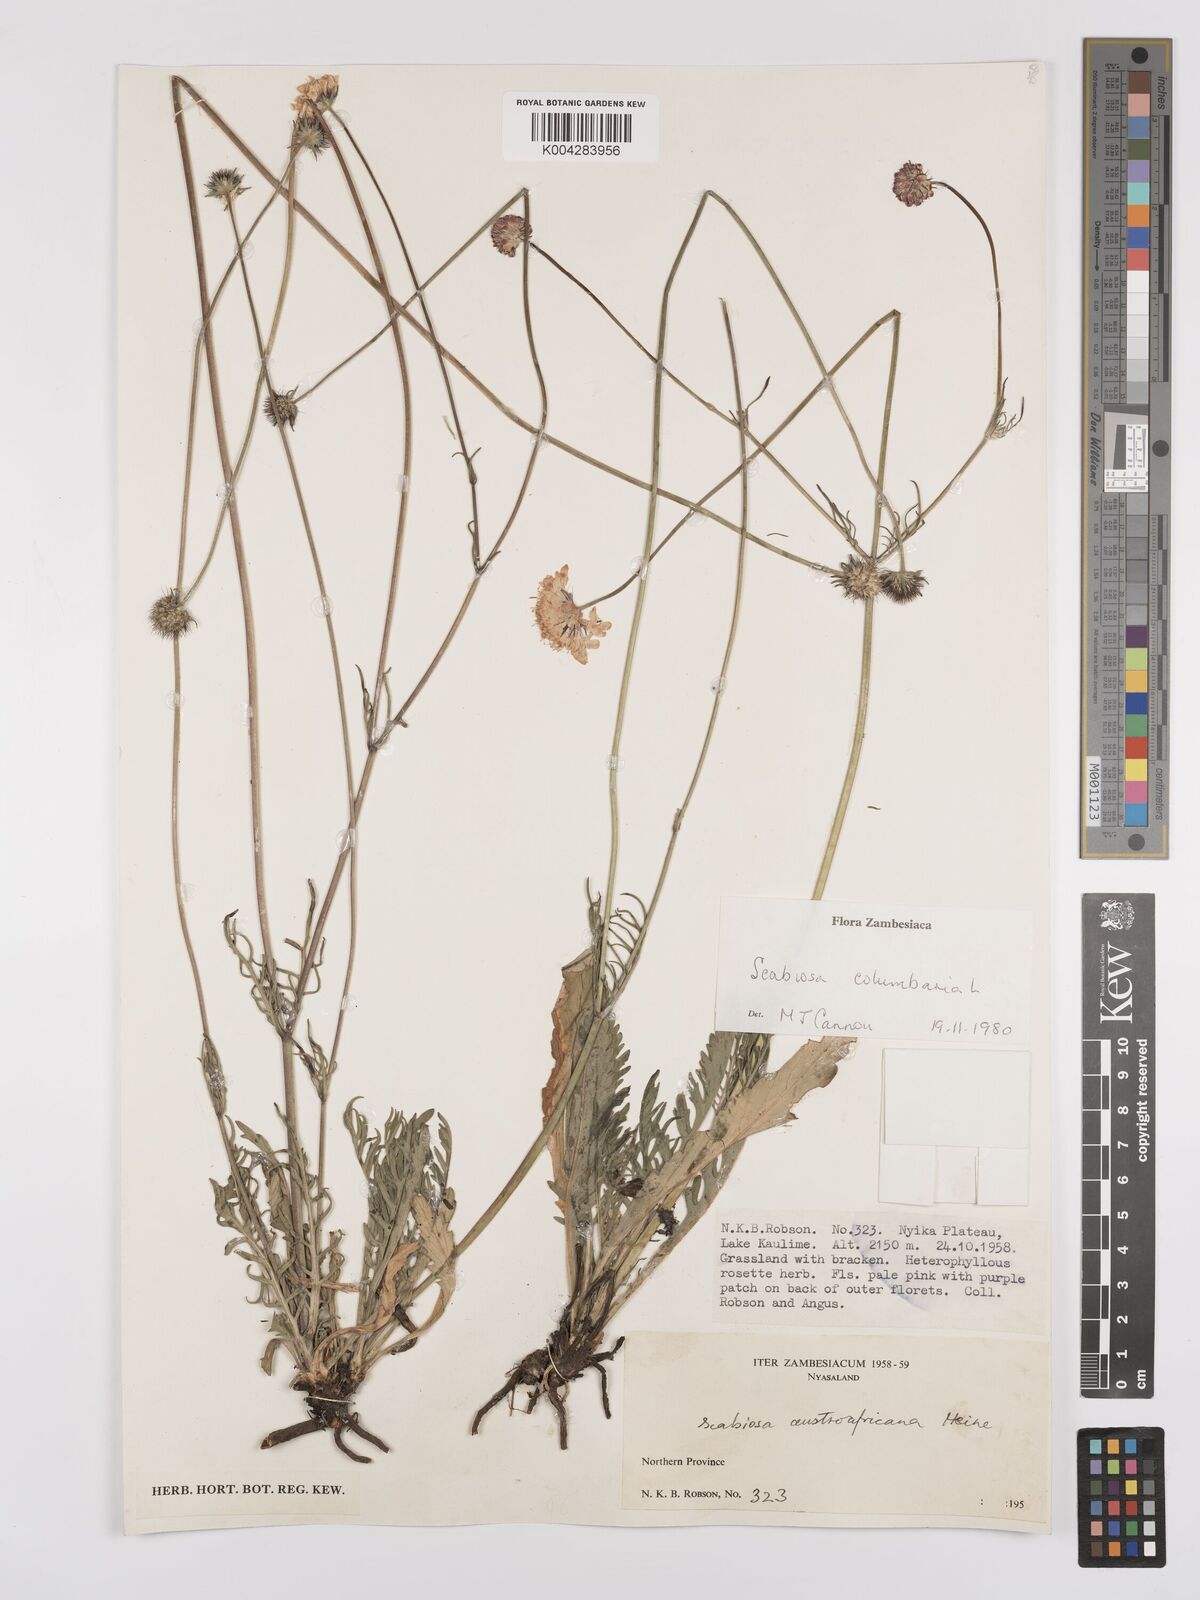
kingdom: Plantae
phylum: Tracheophyta
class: Magnoliopsida
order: Dipsacales
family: Caprifoliaceae
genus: Scabiosa
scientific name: Scabiosa austroafricana
